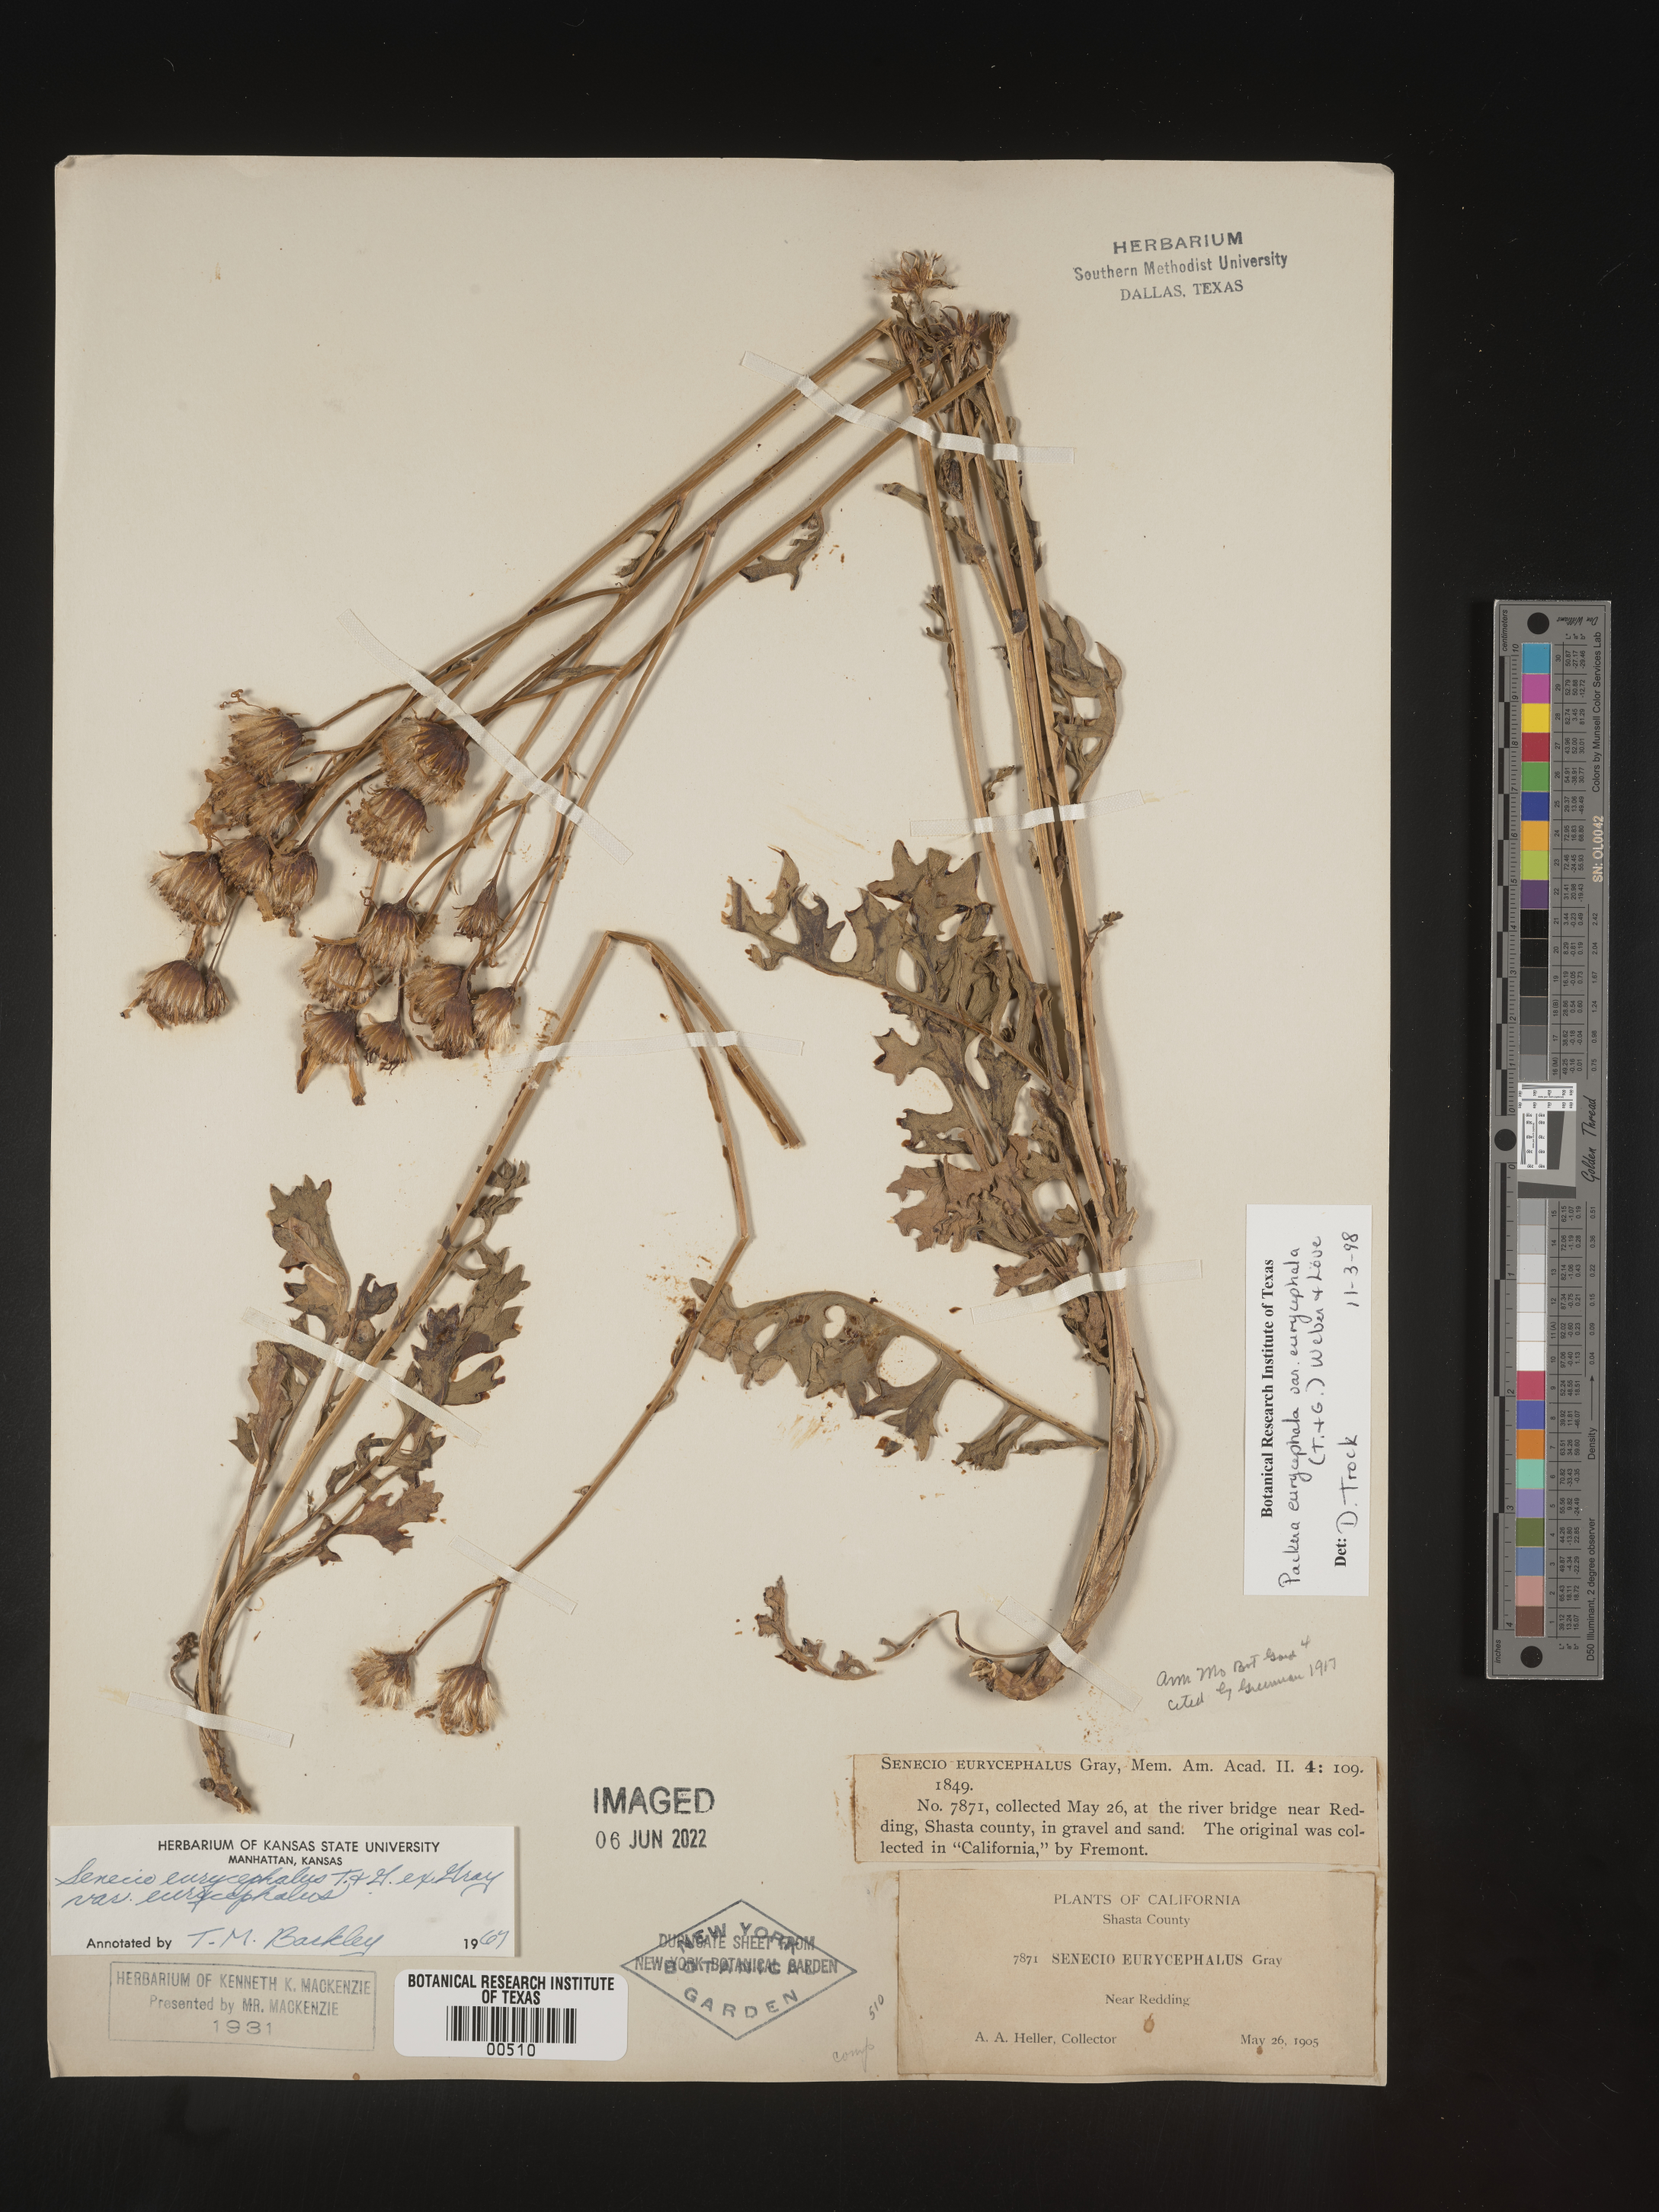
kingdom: Plantae
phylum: Tracheophyta
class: Magnoliopsida
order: Asterales
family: Asteraceae
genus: Packera
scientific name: Packera eurycephala
